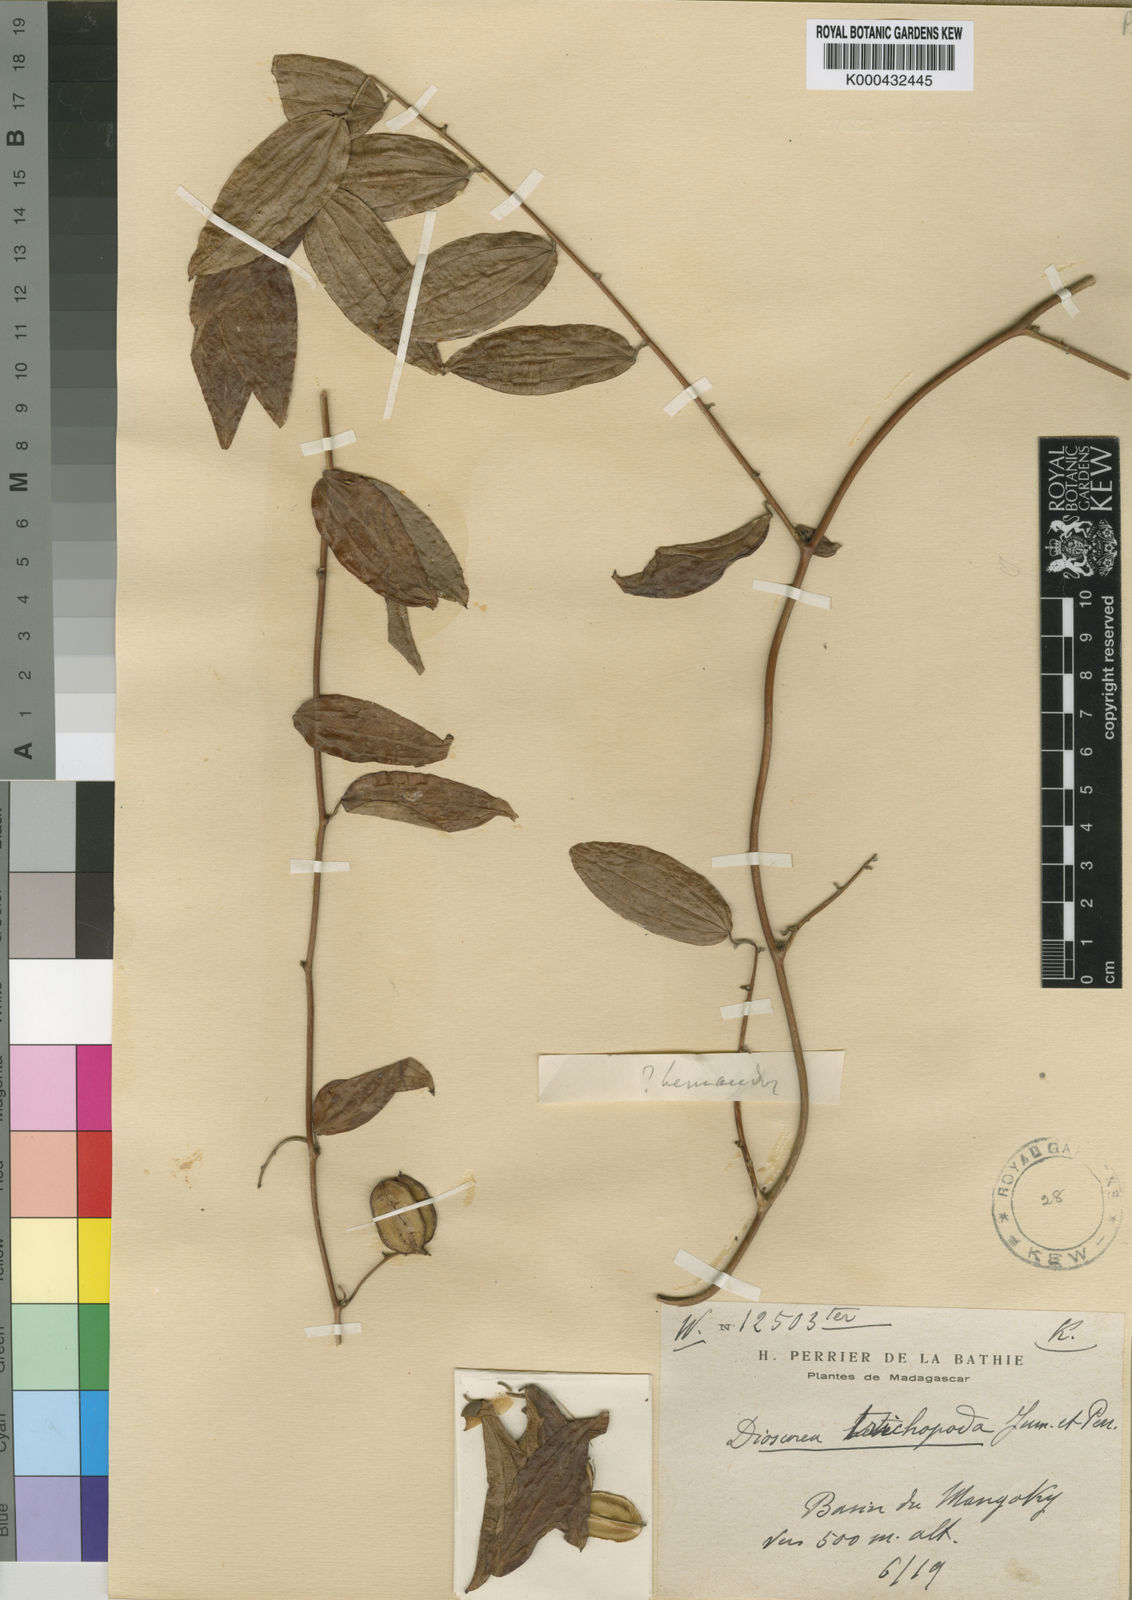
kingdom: Plantae
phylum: Tracheophyta
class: Liliopsida
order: Dioscoreales
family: Dioscoreaceae
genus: Dioscorea
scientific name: Dioscorea soso
